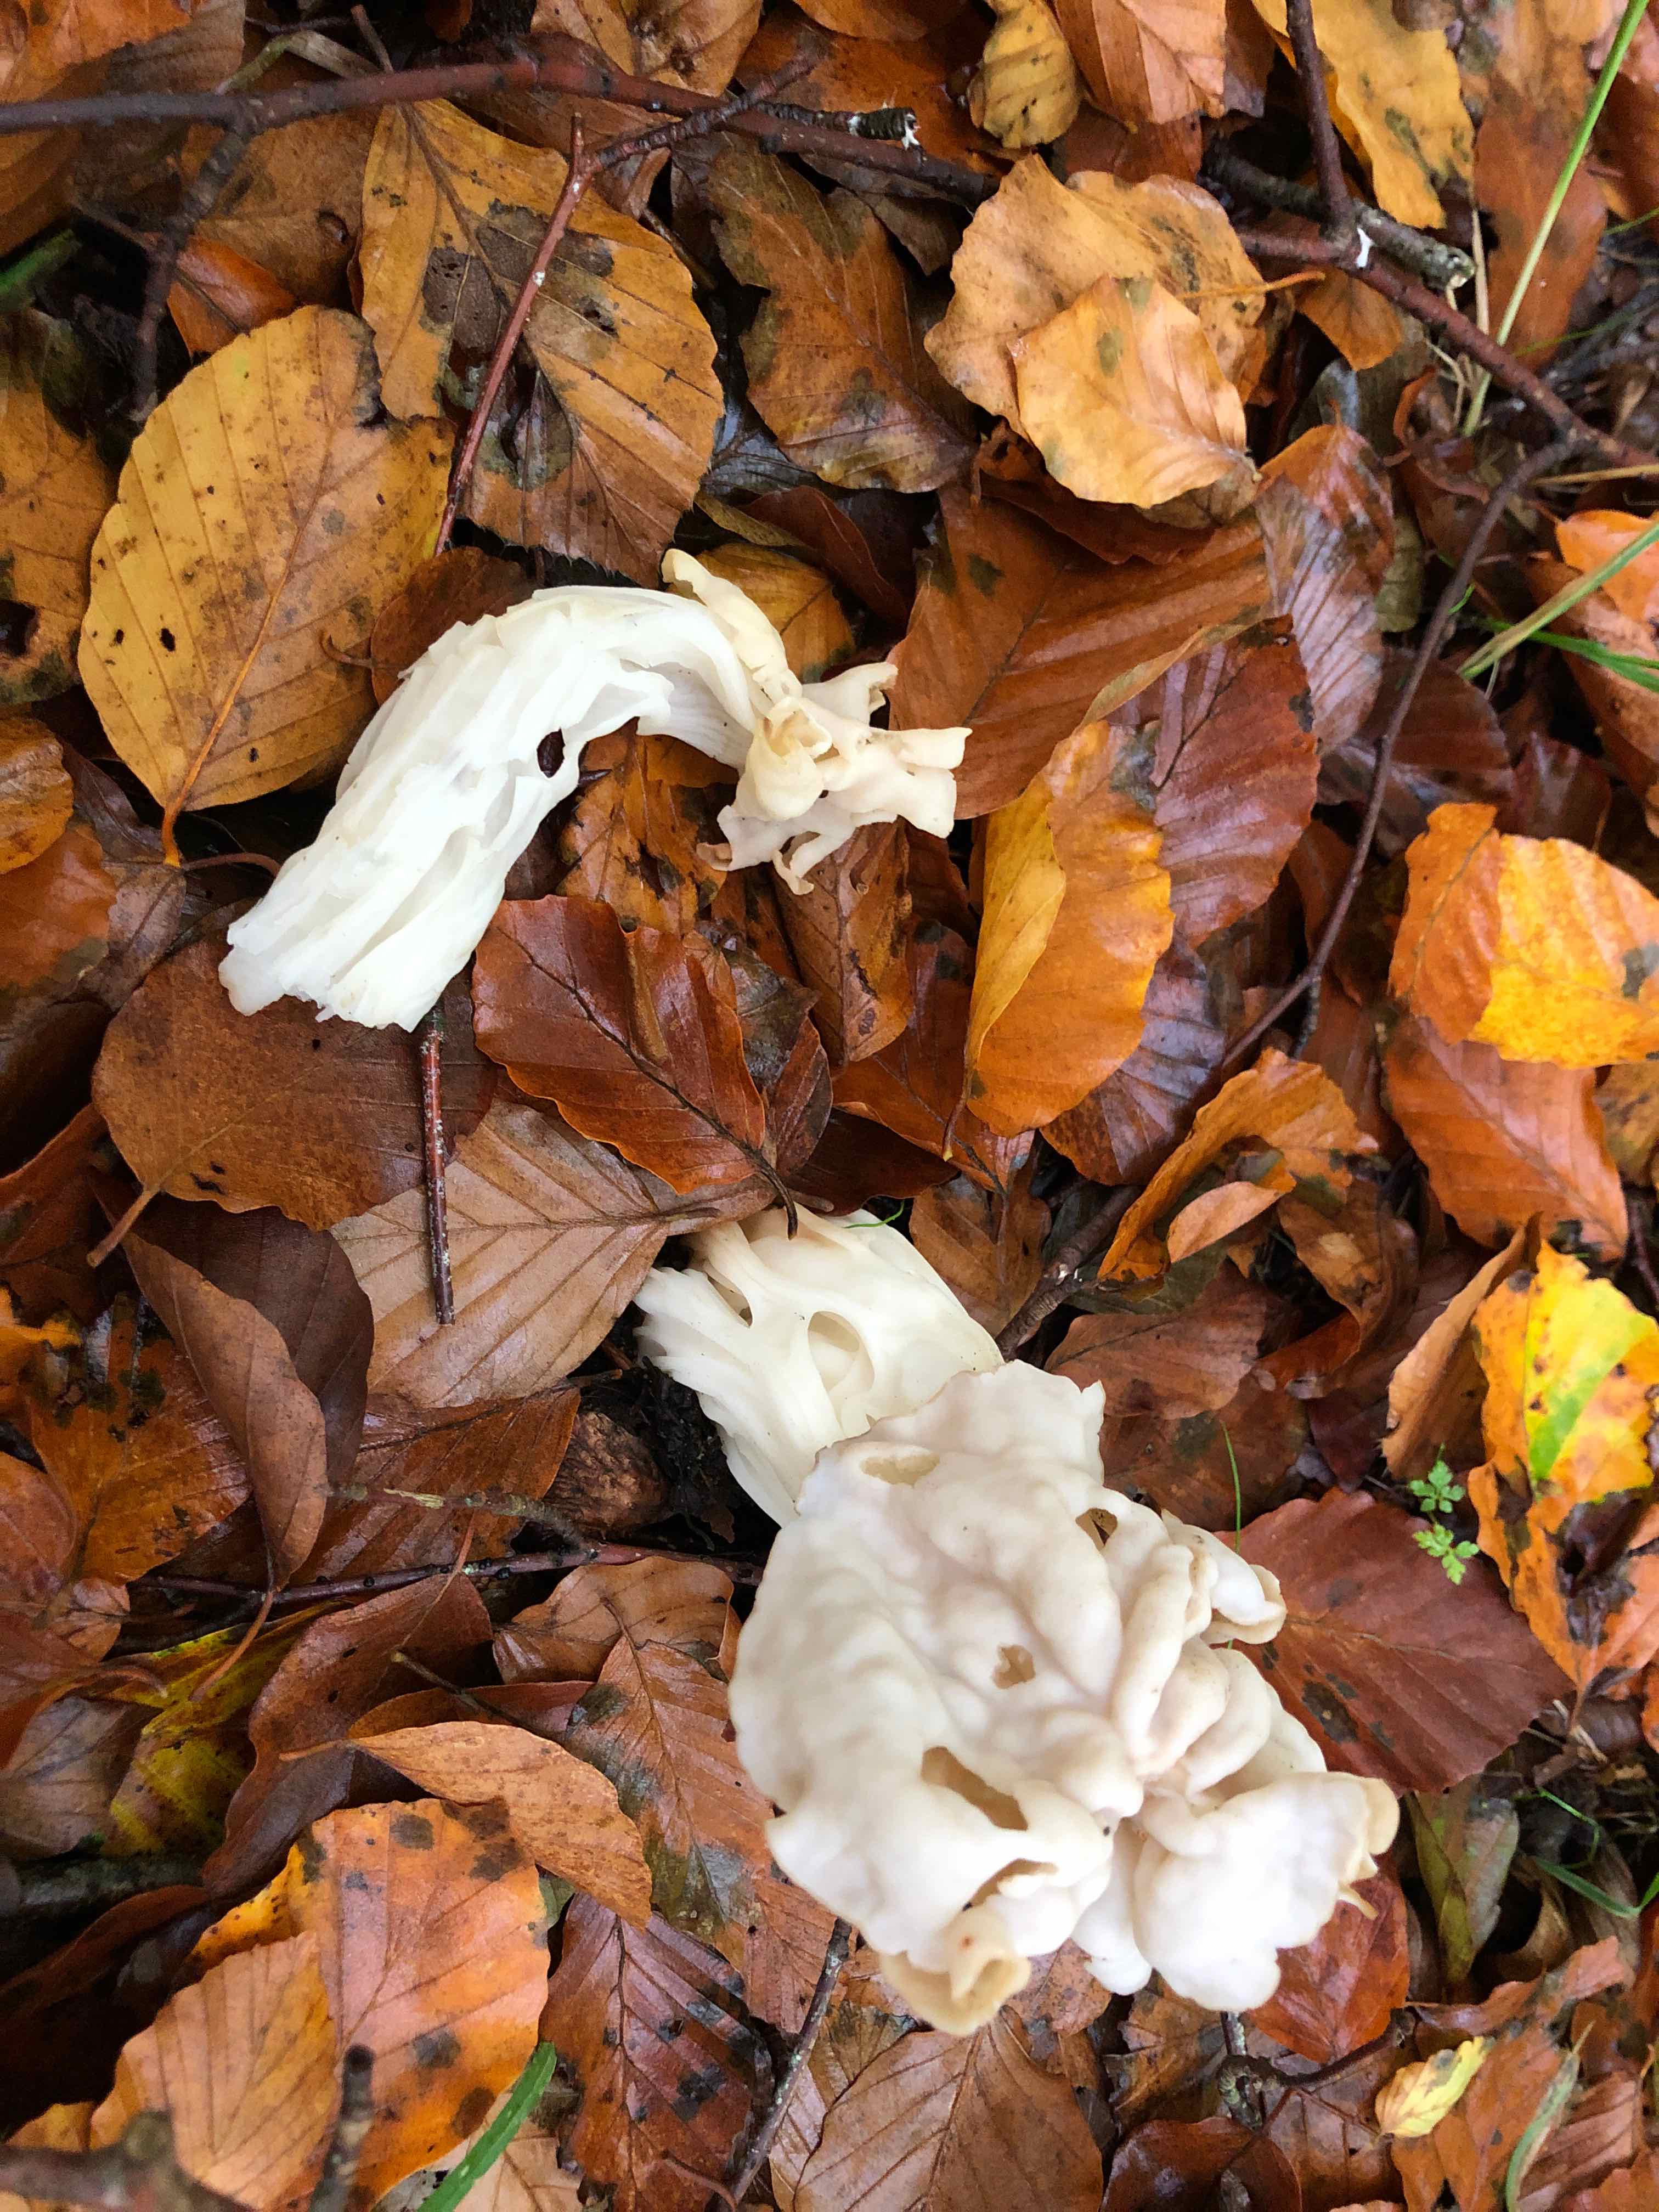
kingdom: Fungi
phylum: Ascomycota
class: Pezizomycetes
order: Pezizales
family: Helvellaceae
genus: Helvella
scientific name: Helvella crispa
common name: kruset foldhat
